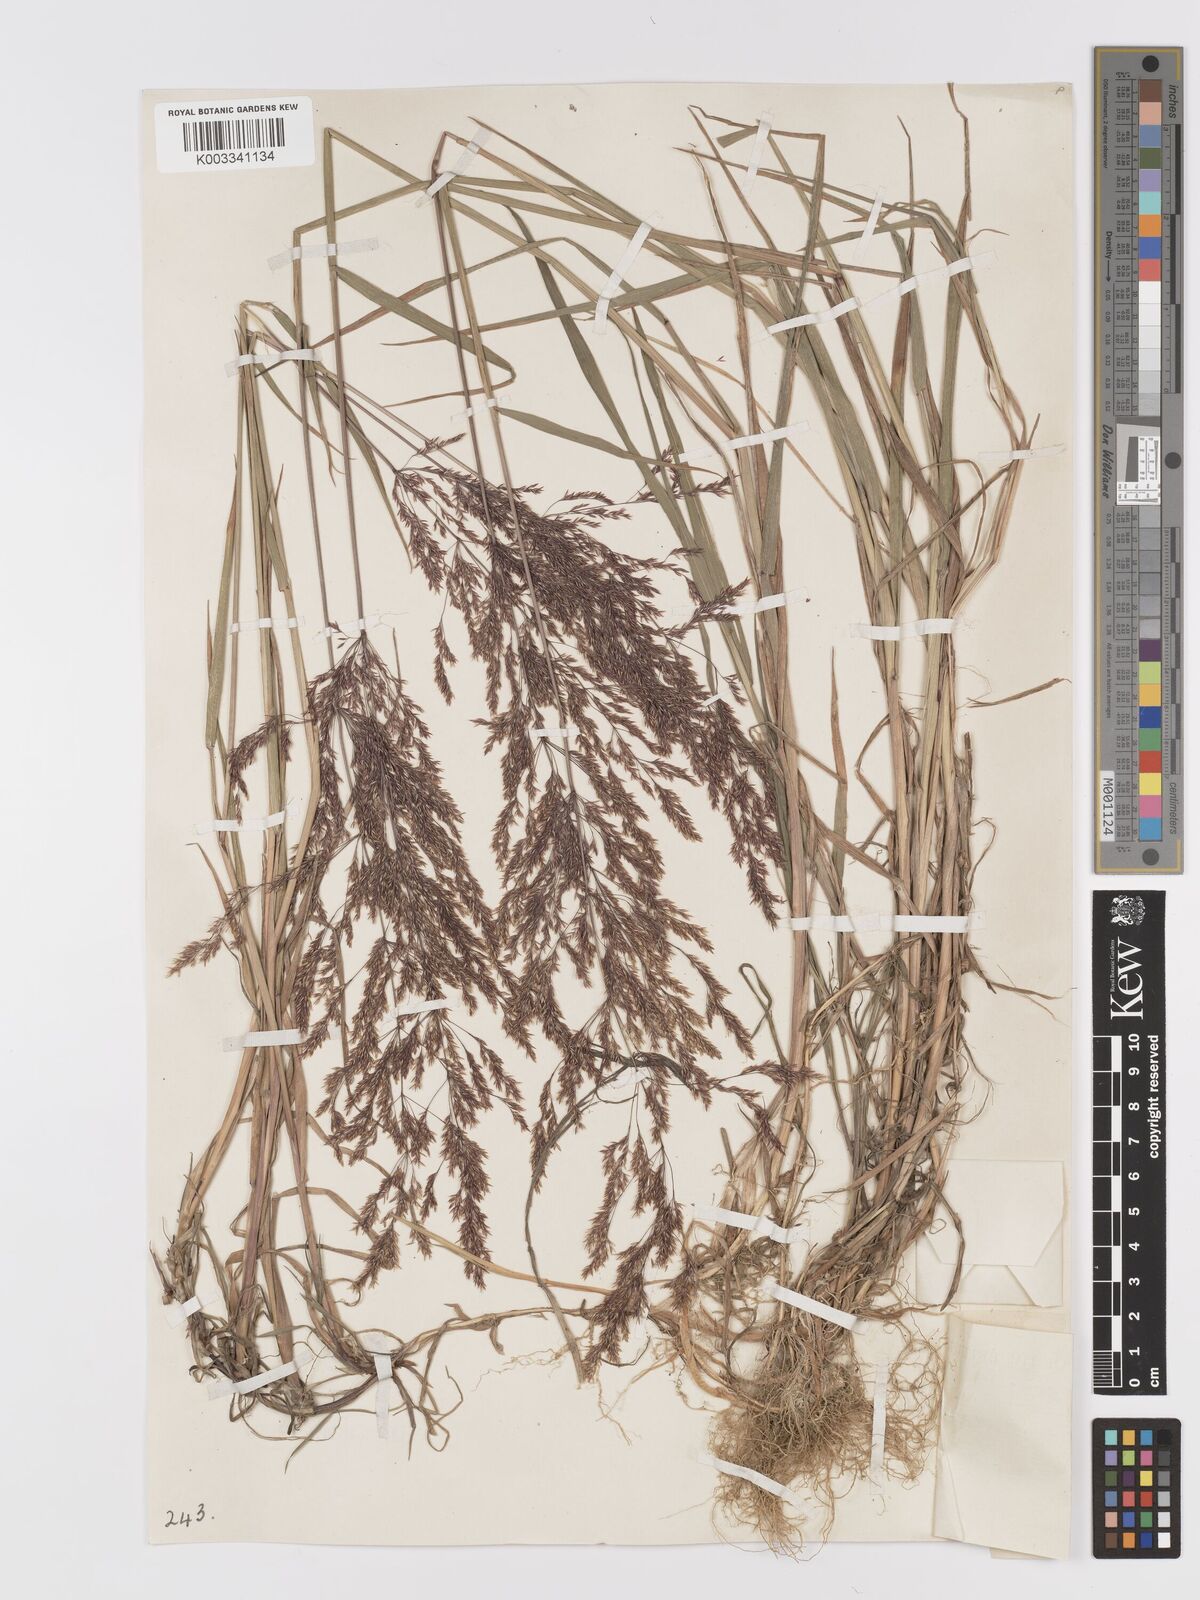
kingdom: Plantae
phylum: Tracheophyta
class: Liliopsida
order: Poales
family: Poaceae
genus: Agrostis
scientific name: Agrostis gigantea
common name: Black bent
